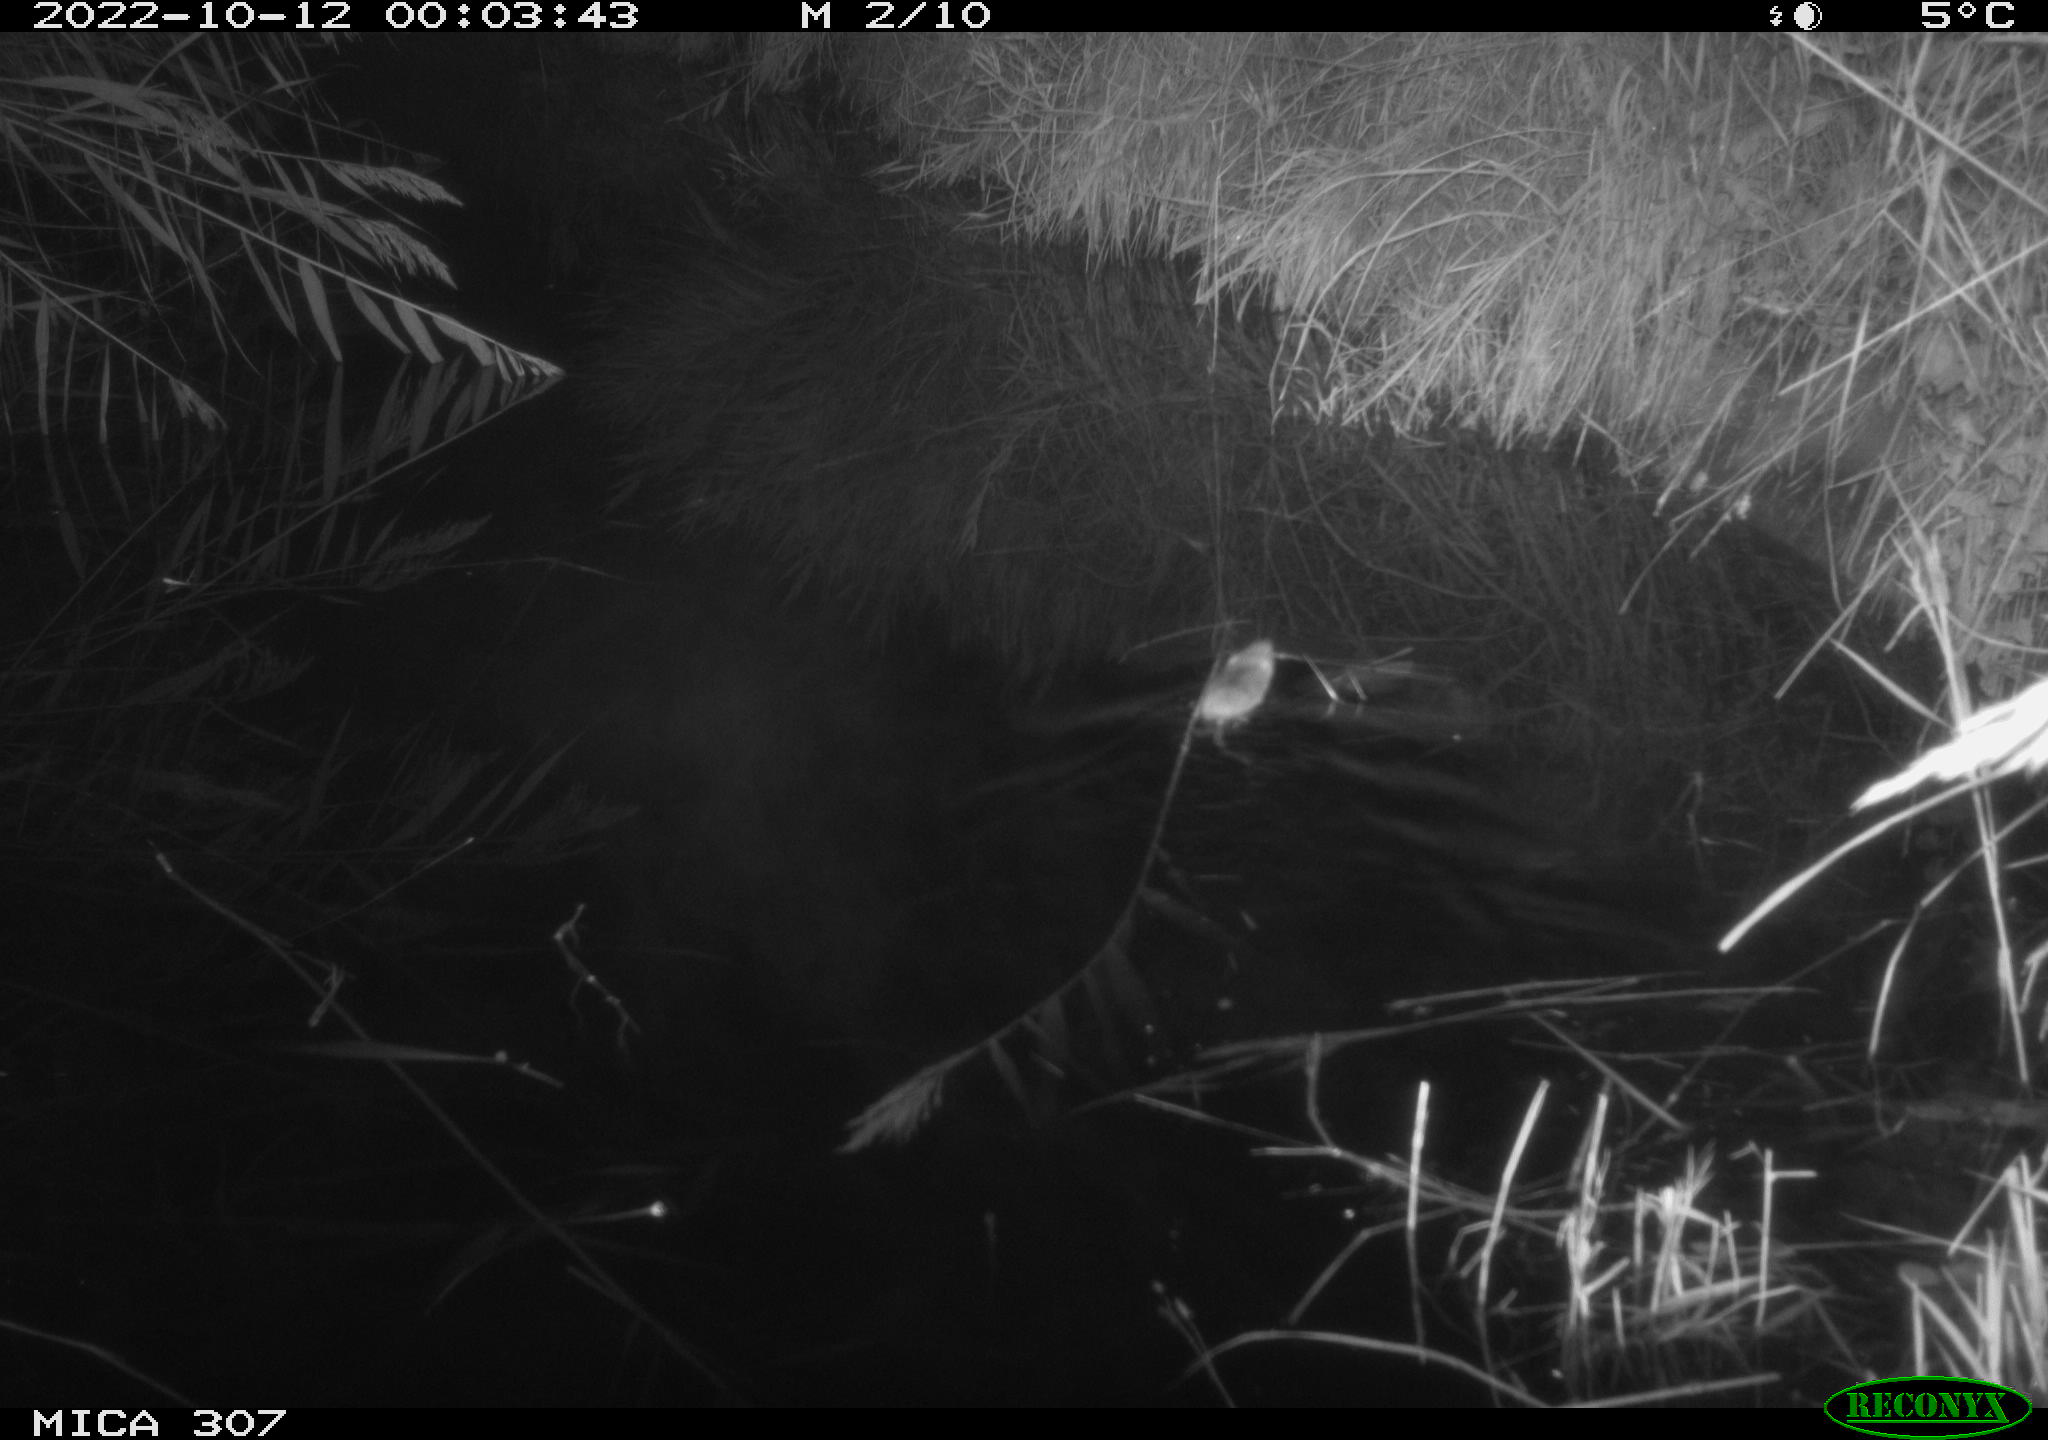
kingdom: Animalia
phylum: Chordata
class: Mammalia
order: Rodentia
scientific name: Rodentia
